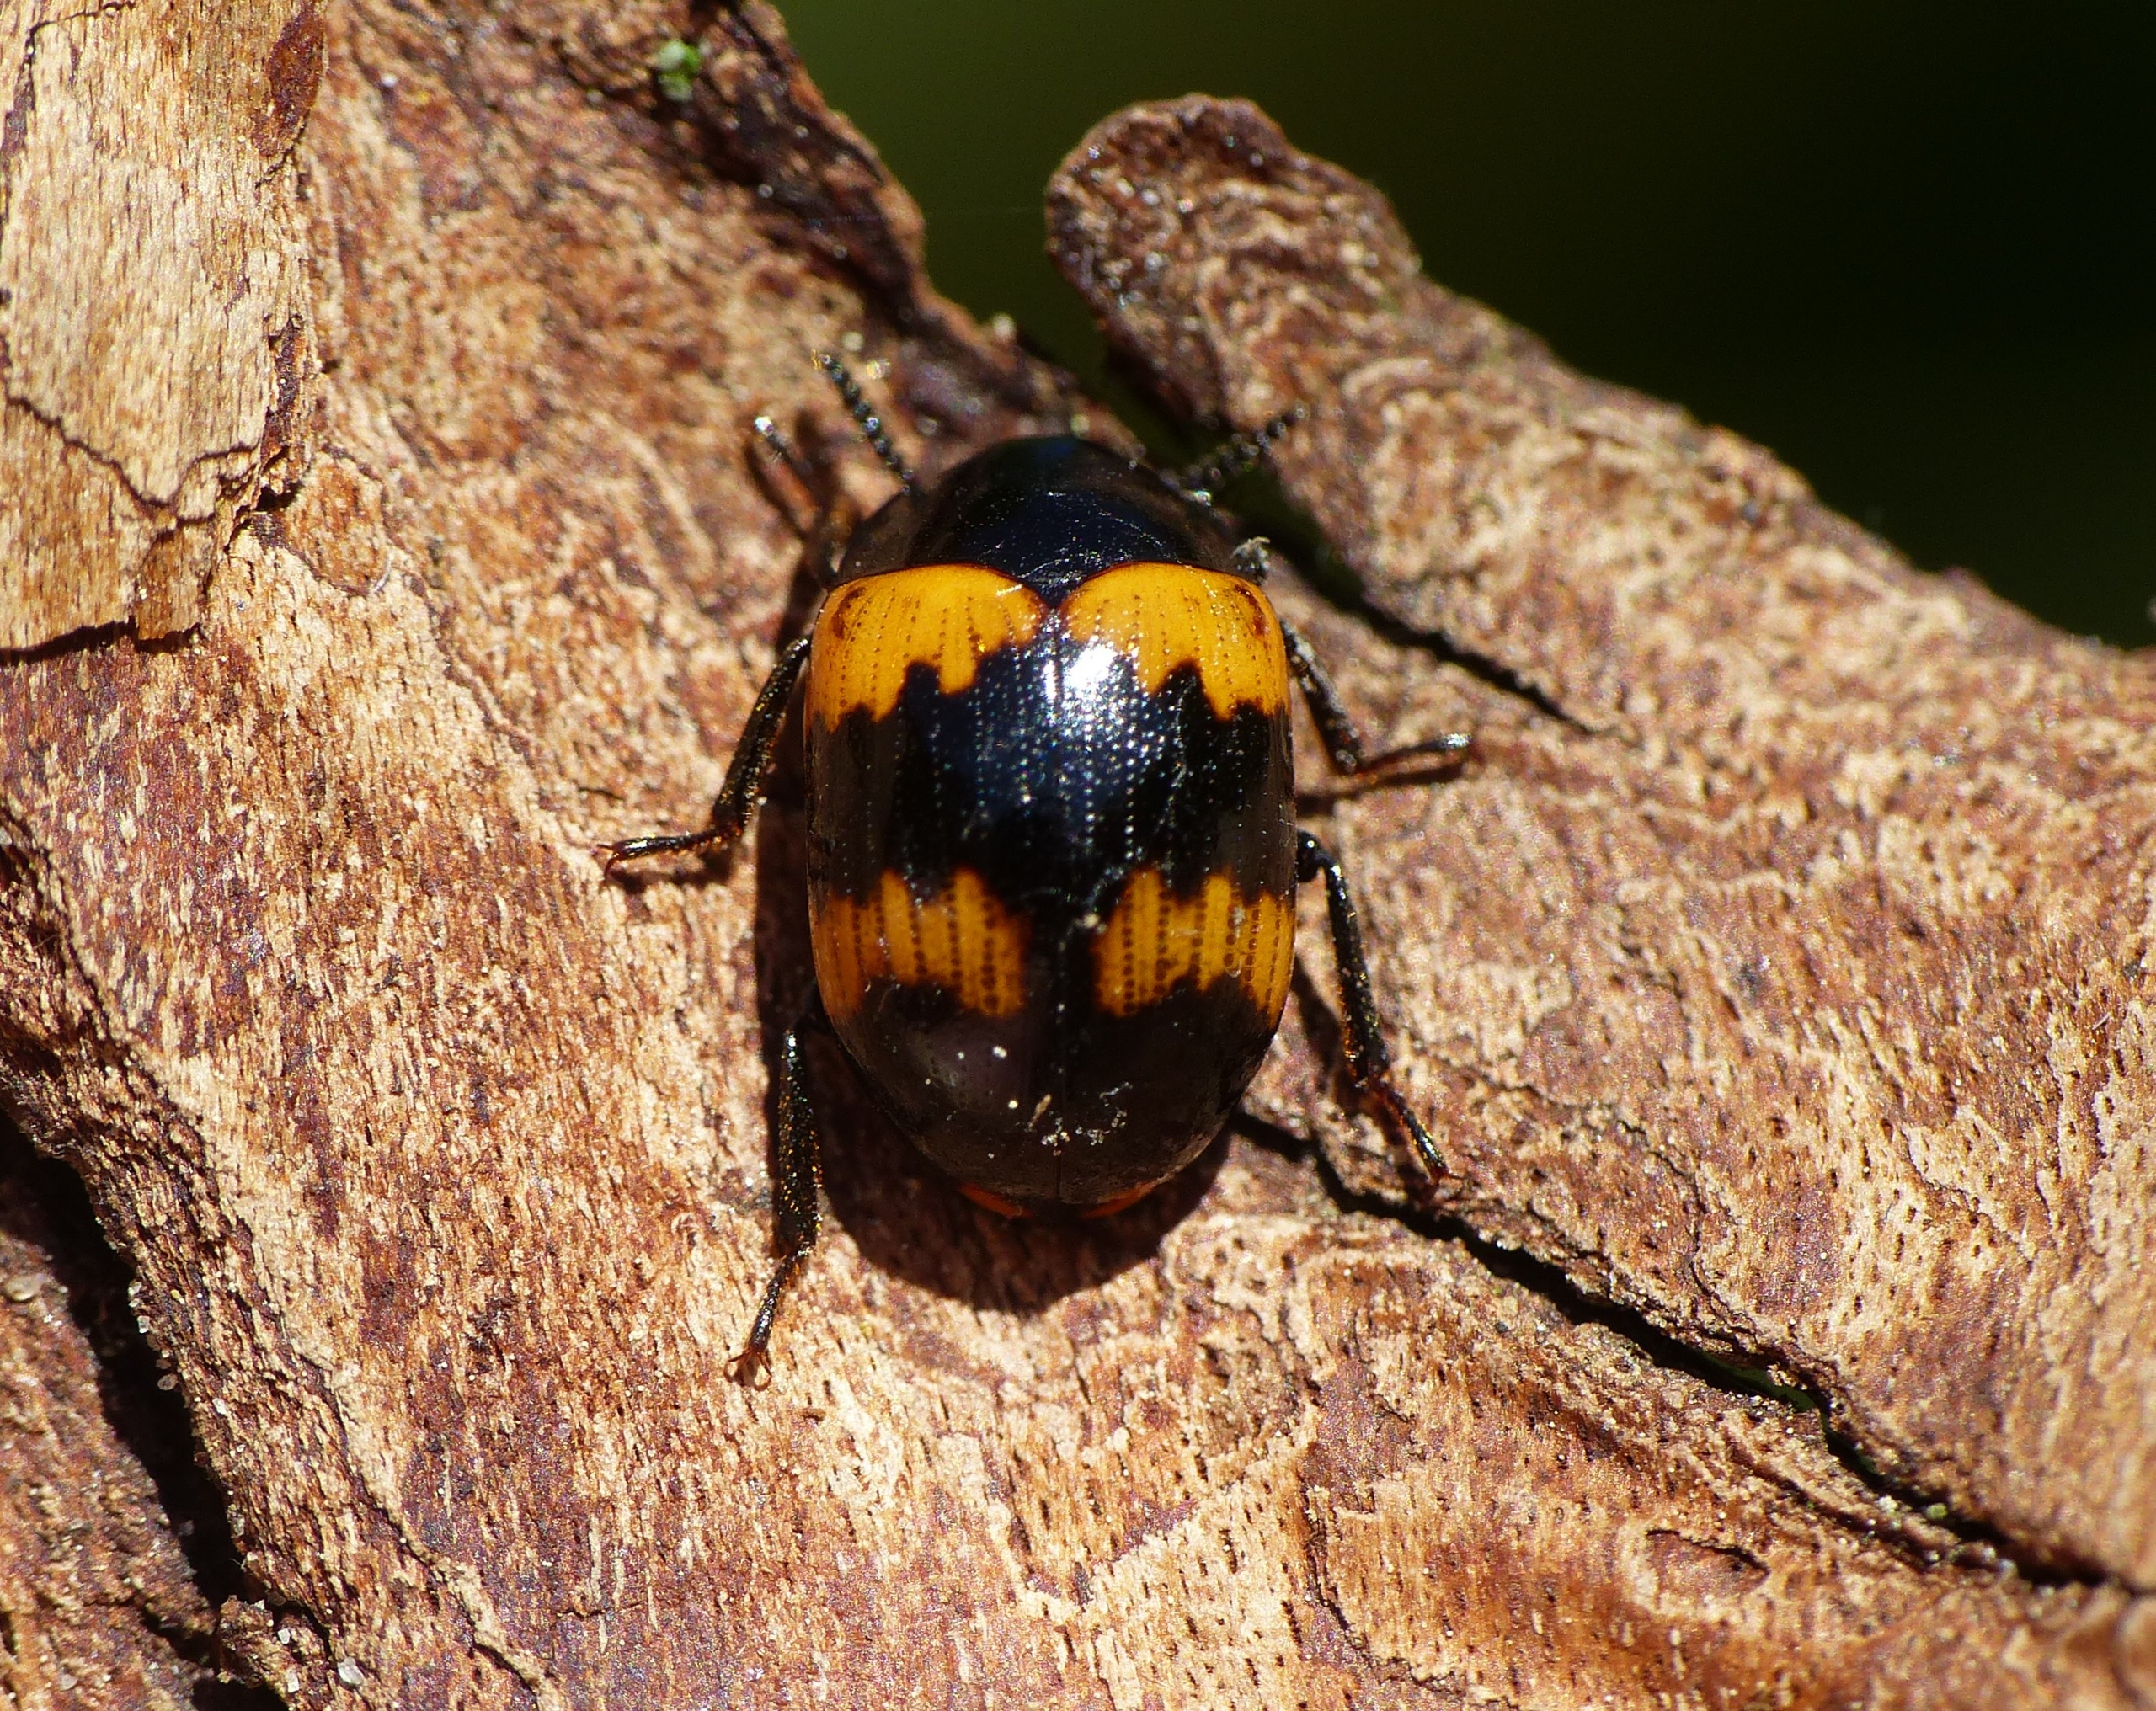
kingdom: Animalia
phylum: Arthropoda
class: Insecta
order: Coleoptera
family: Tenebrionidae
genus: Diaperis
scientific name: Diaperis boleti
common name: Tigerskyggebille
